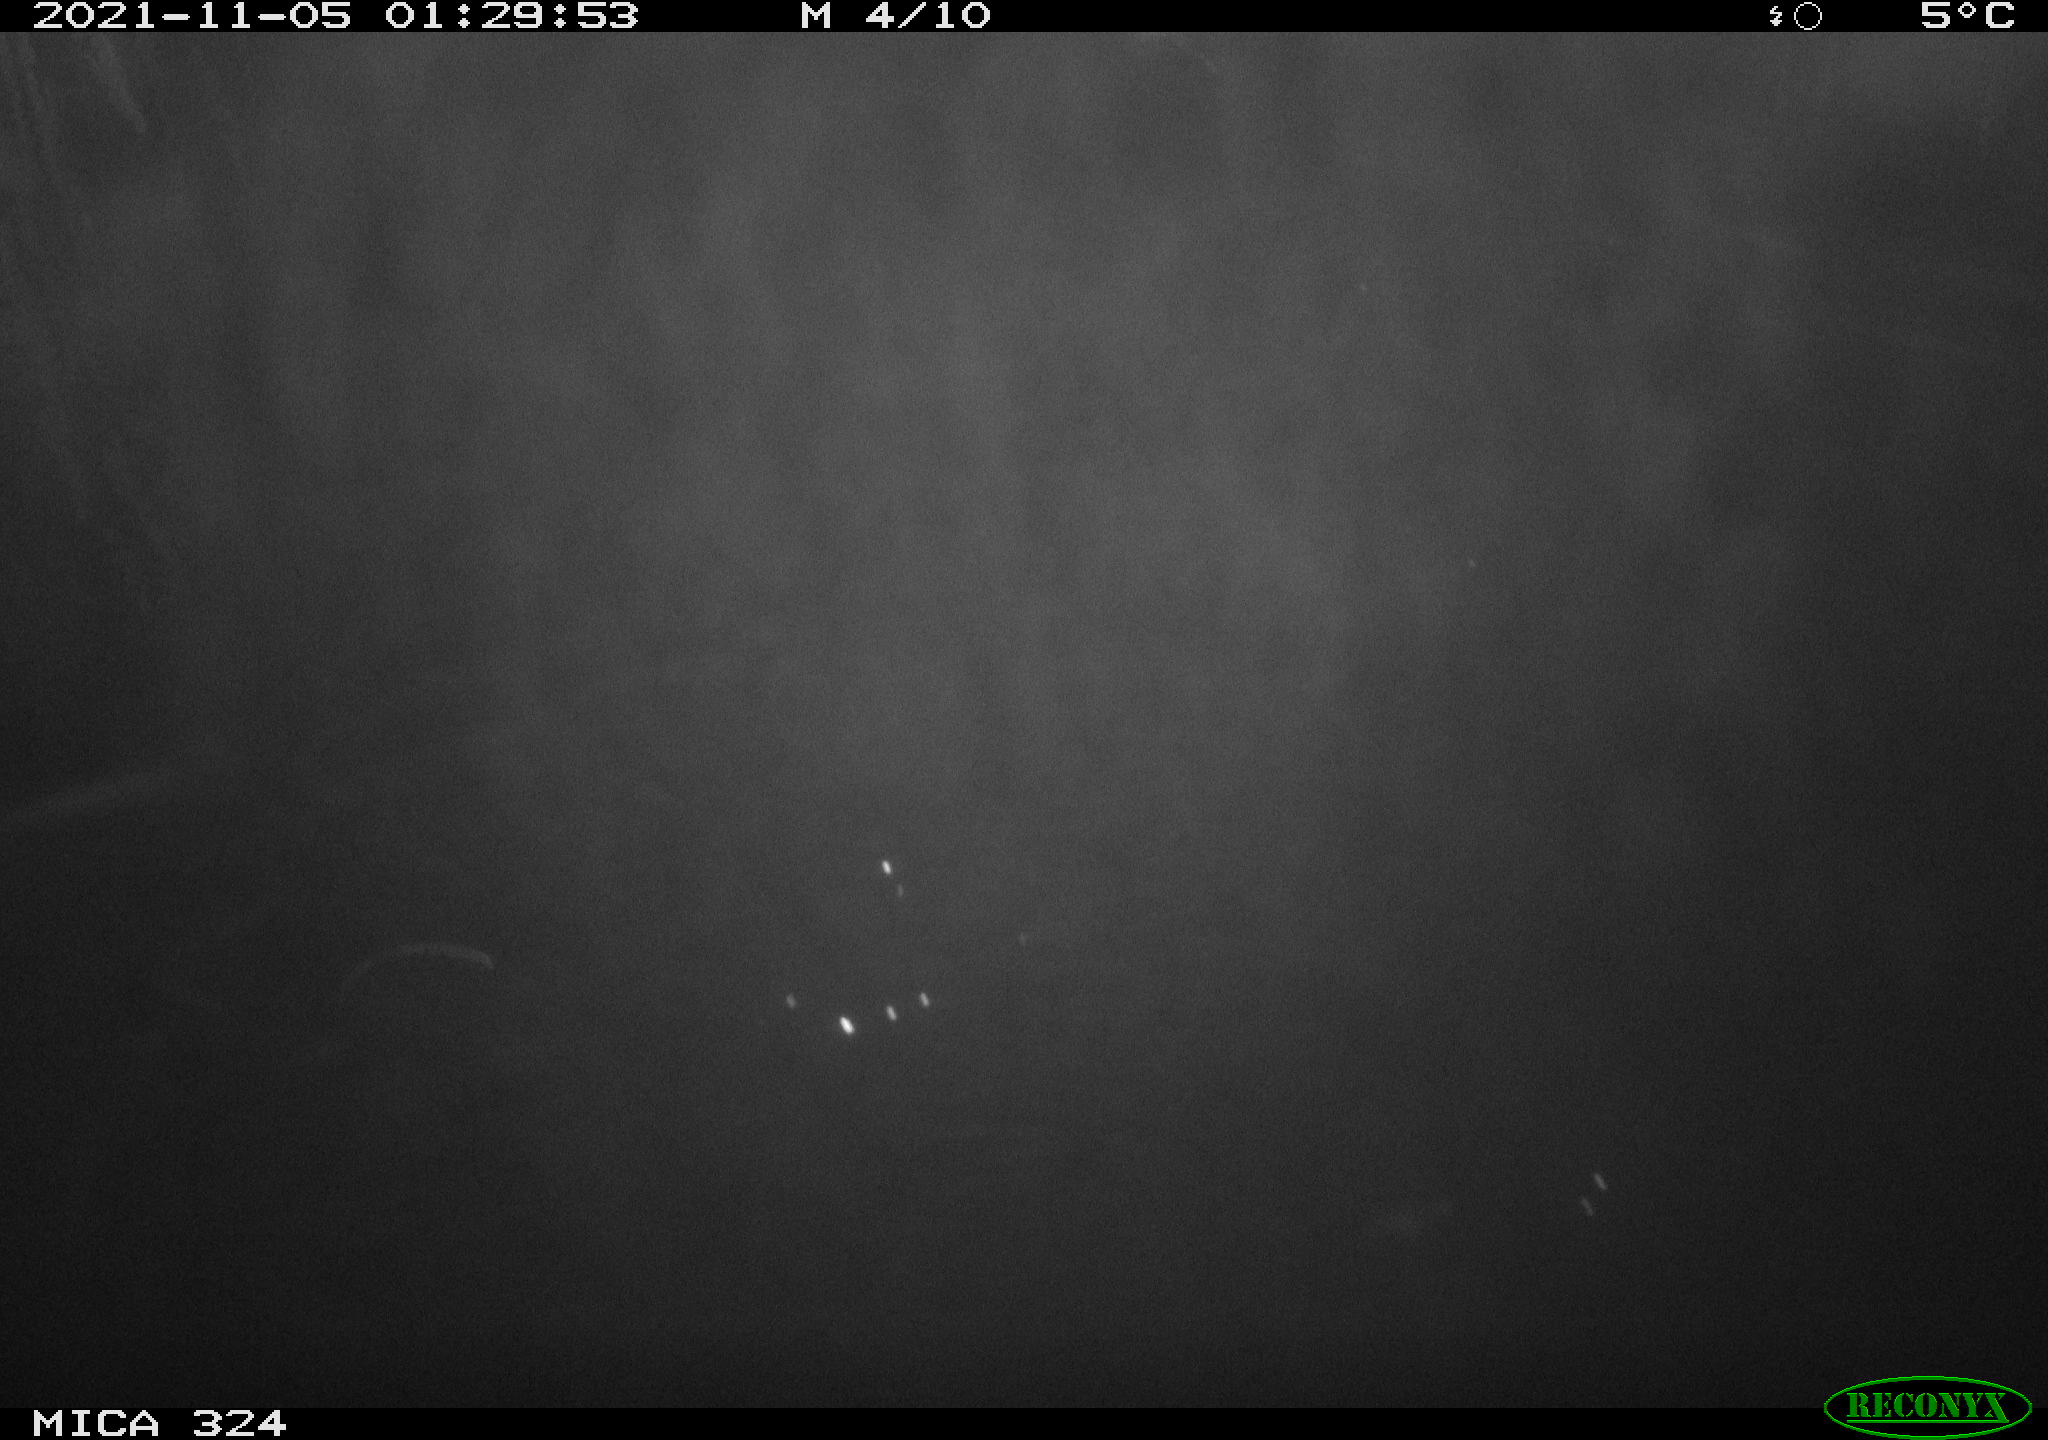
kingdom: Animalia
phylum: Chordata
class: Mammalia
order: Rodentia
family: Cricetidae
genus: Ondatra
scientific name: Ondatra zibethicus
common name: Muskrat
